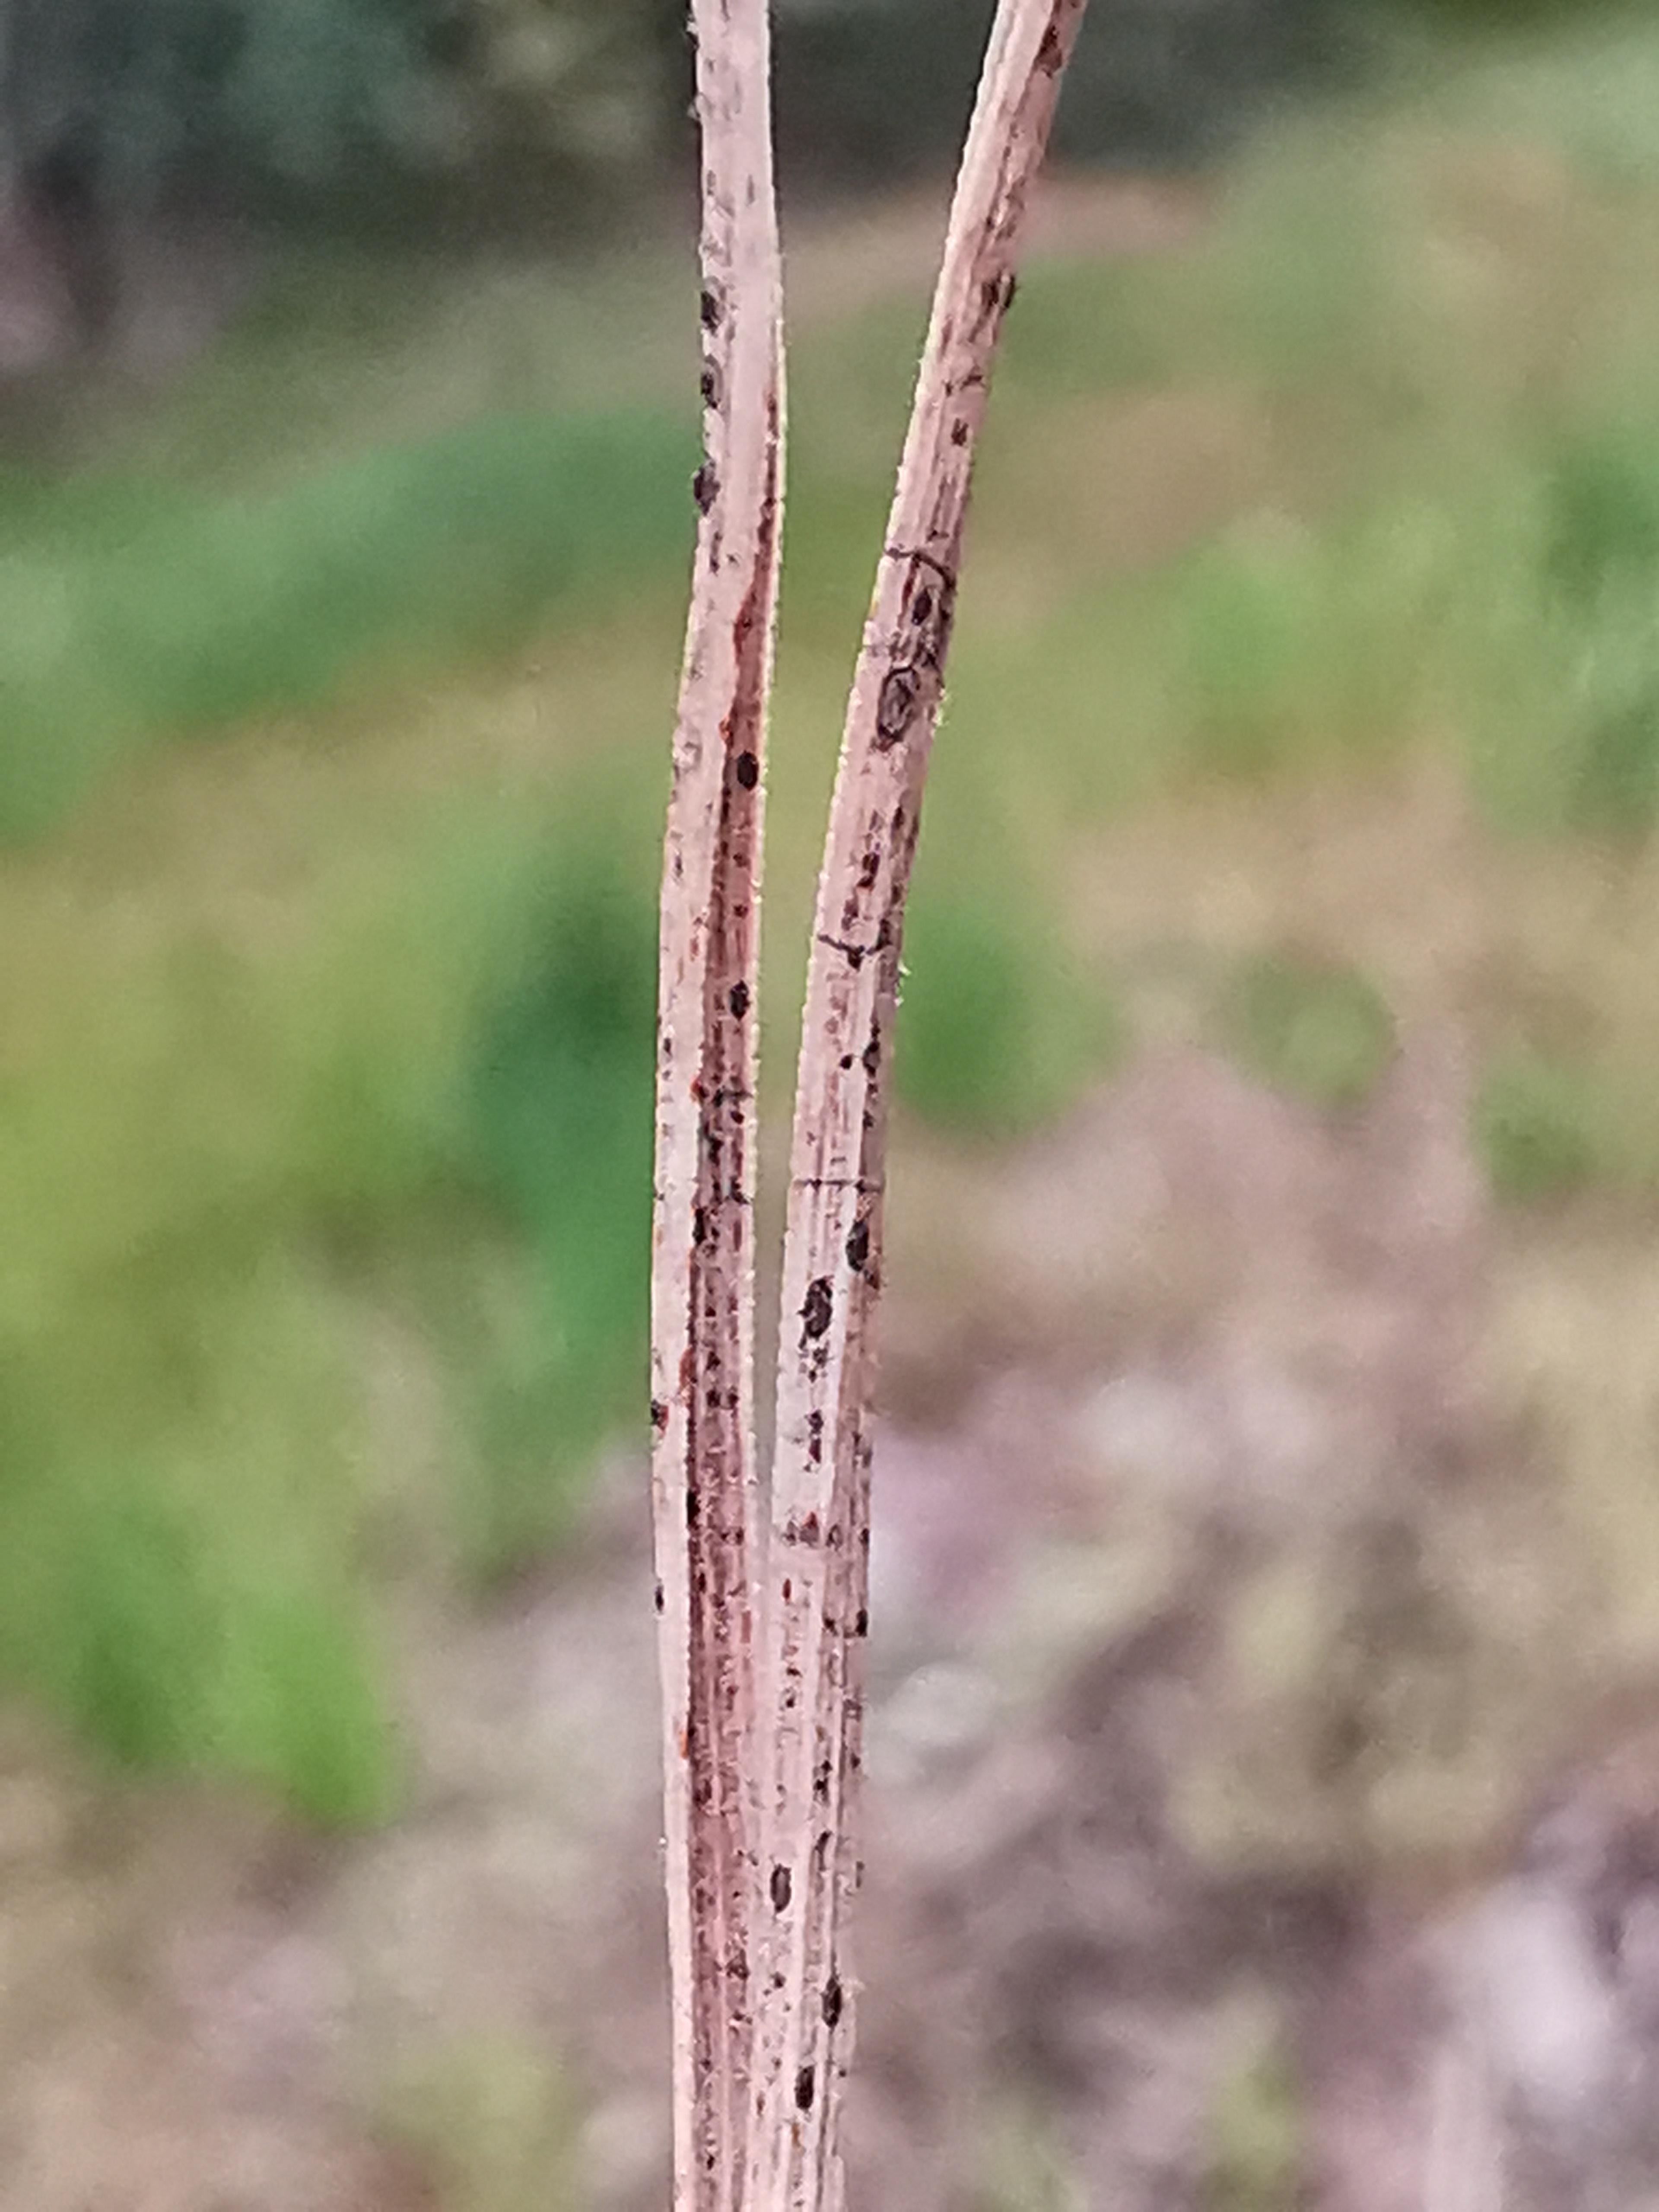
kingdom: Fungi
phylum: Ascomycota
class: Leotiomycetes
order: Rhytismatales
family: Rhytismataceae
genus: Lophodermium
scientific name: Lophodermium pinastri
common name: fyrre-fureplet
